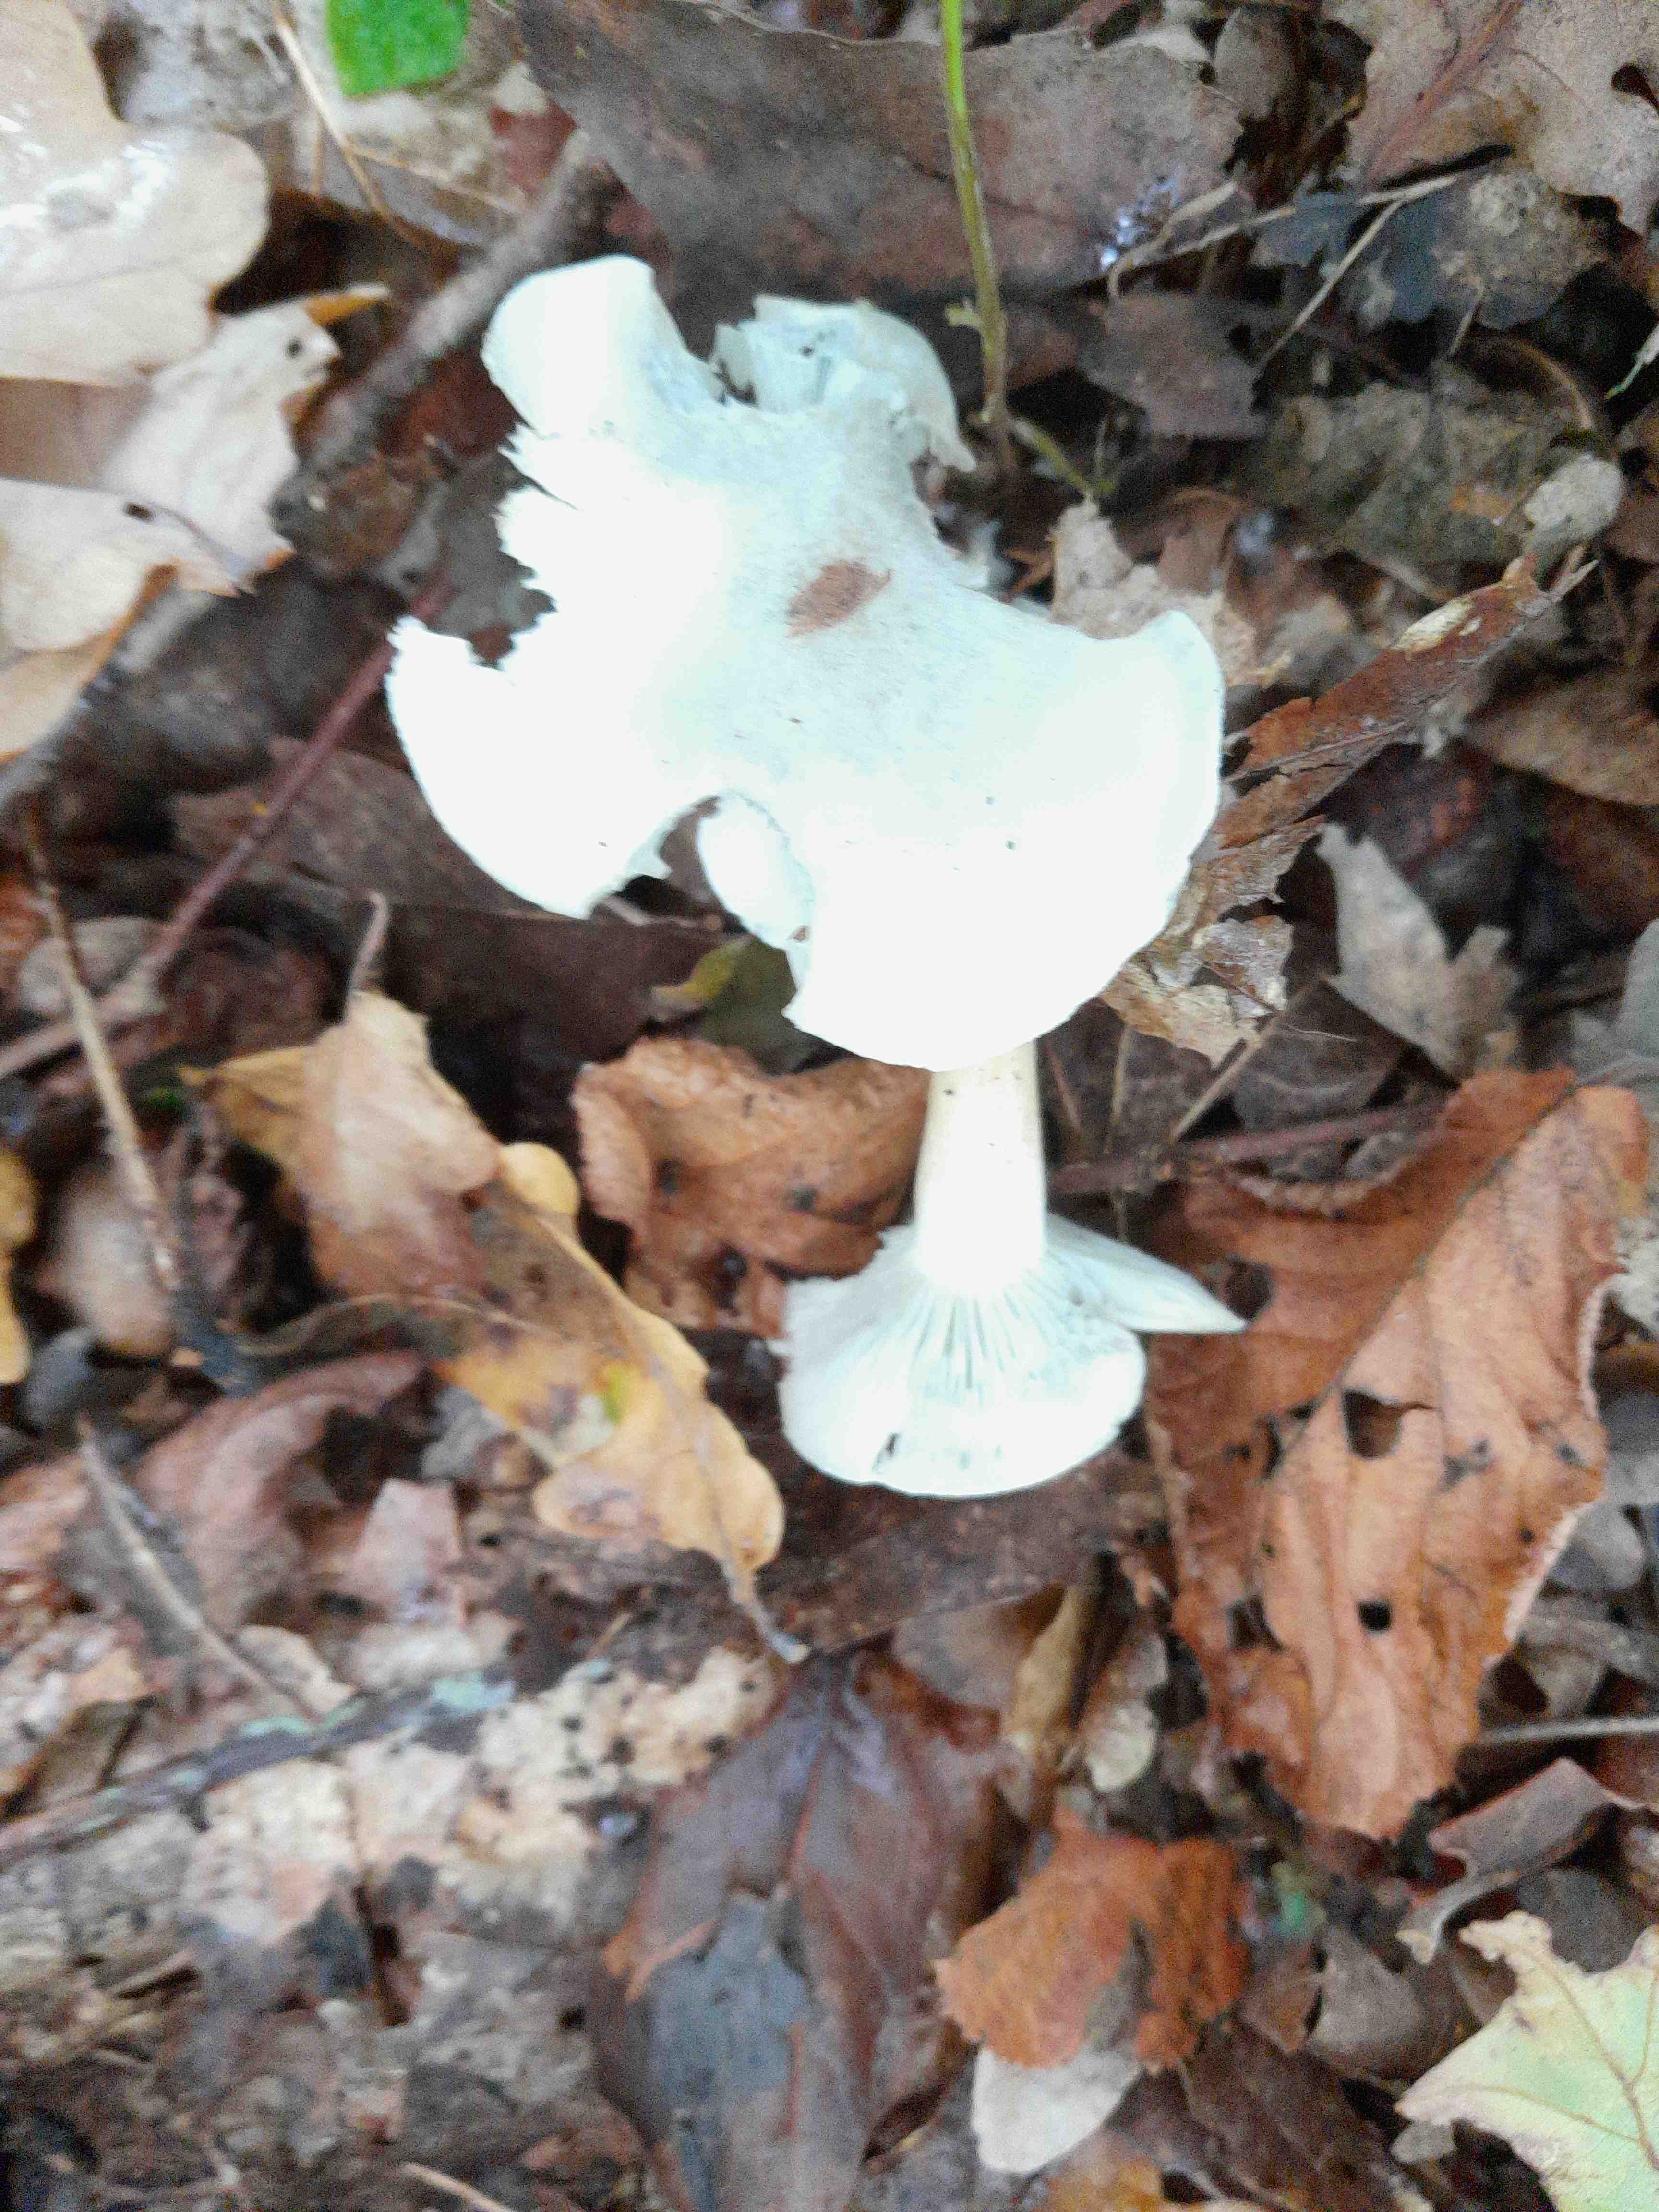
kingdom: Fungi
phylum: Basidiomycota
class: Agaricomycetes
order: Agaricales
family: Tricholomataceae
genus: Clitocybe
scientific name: Clitocybe odora
